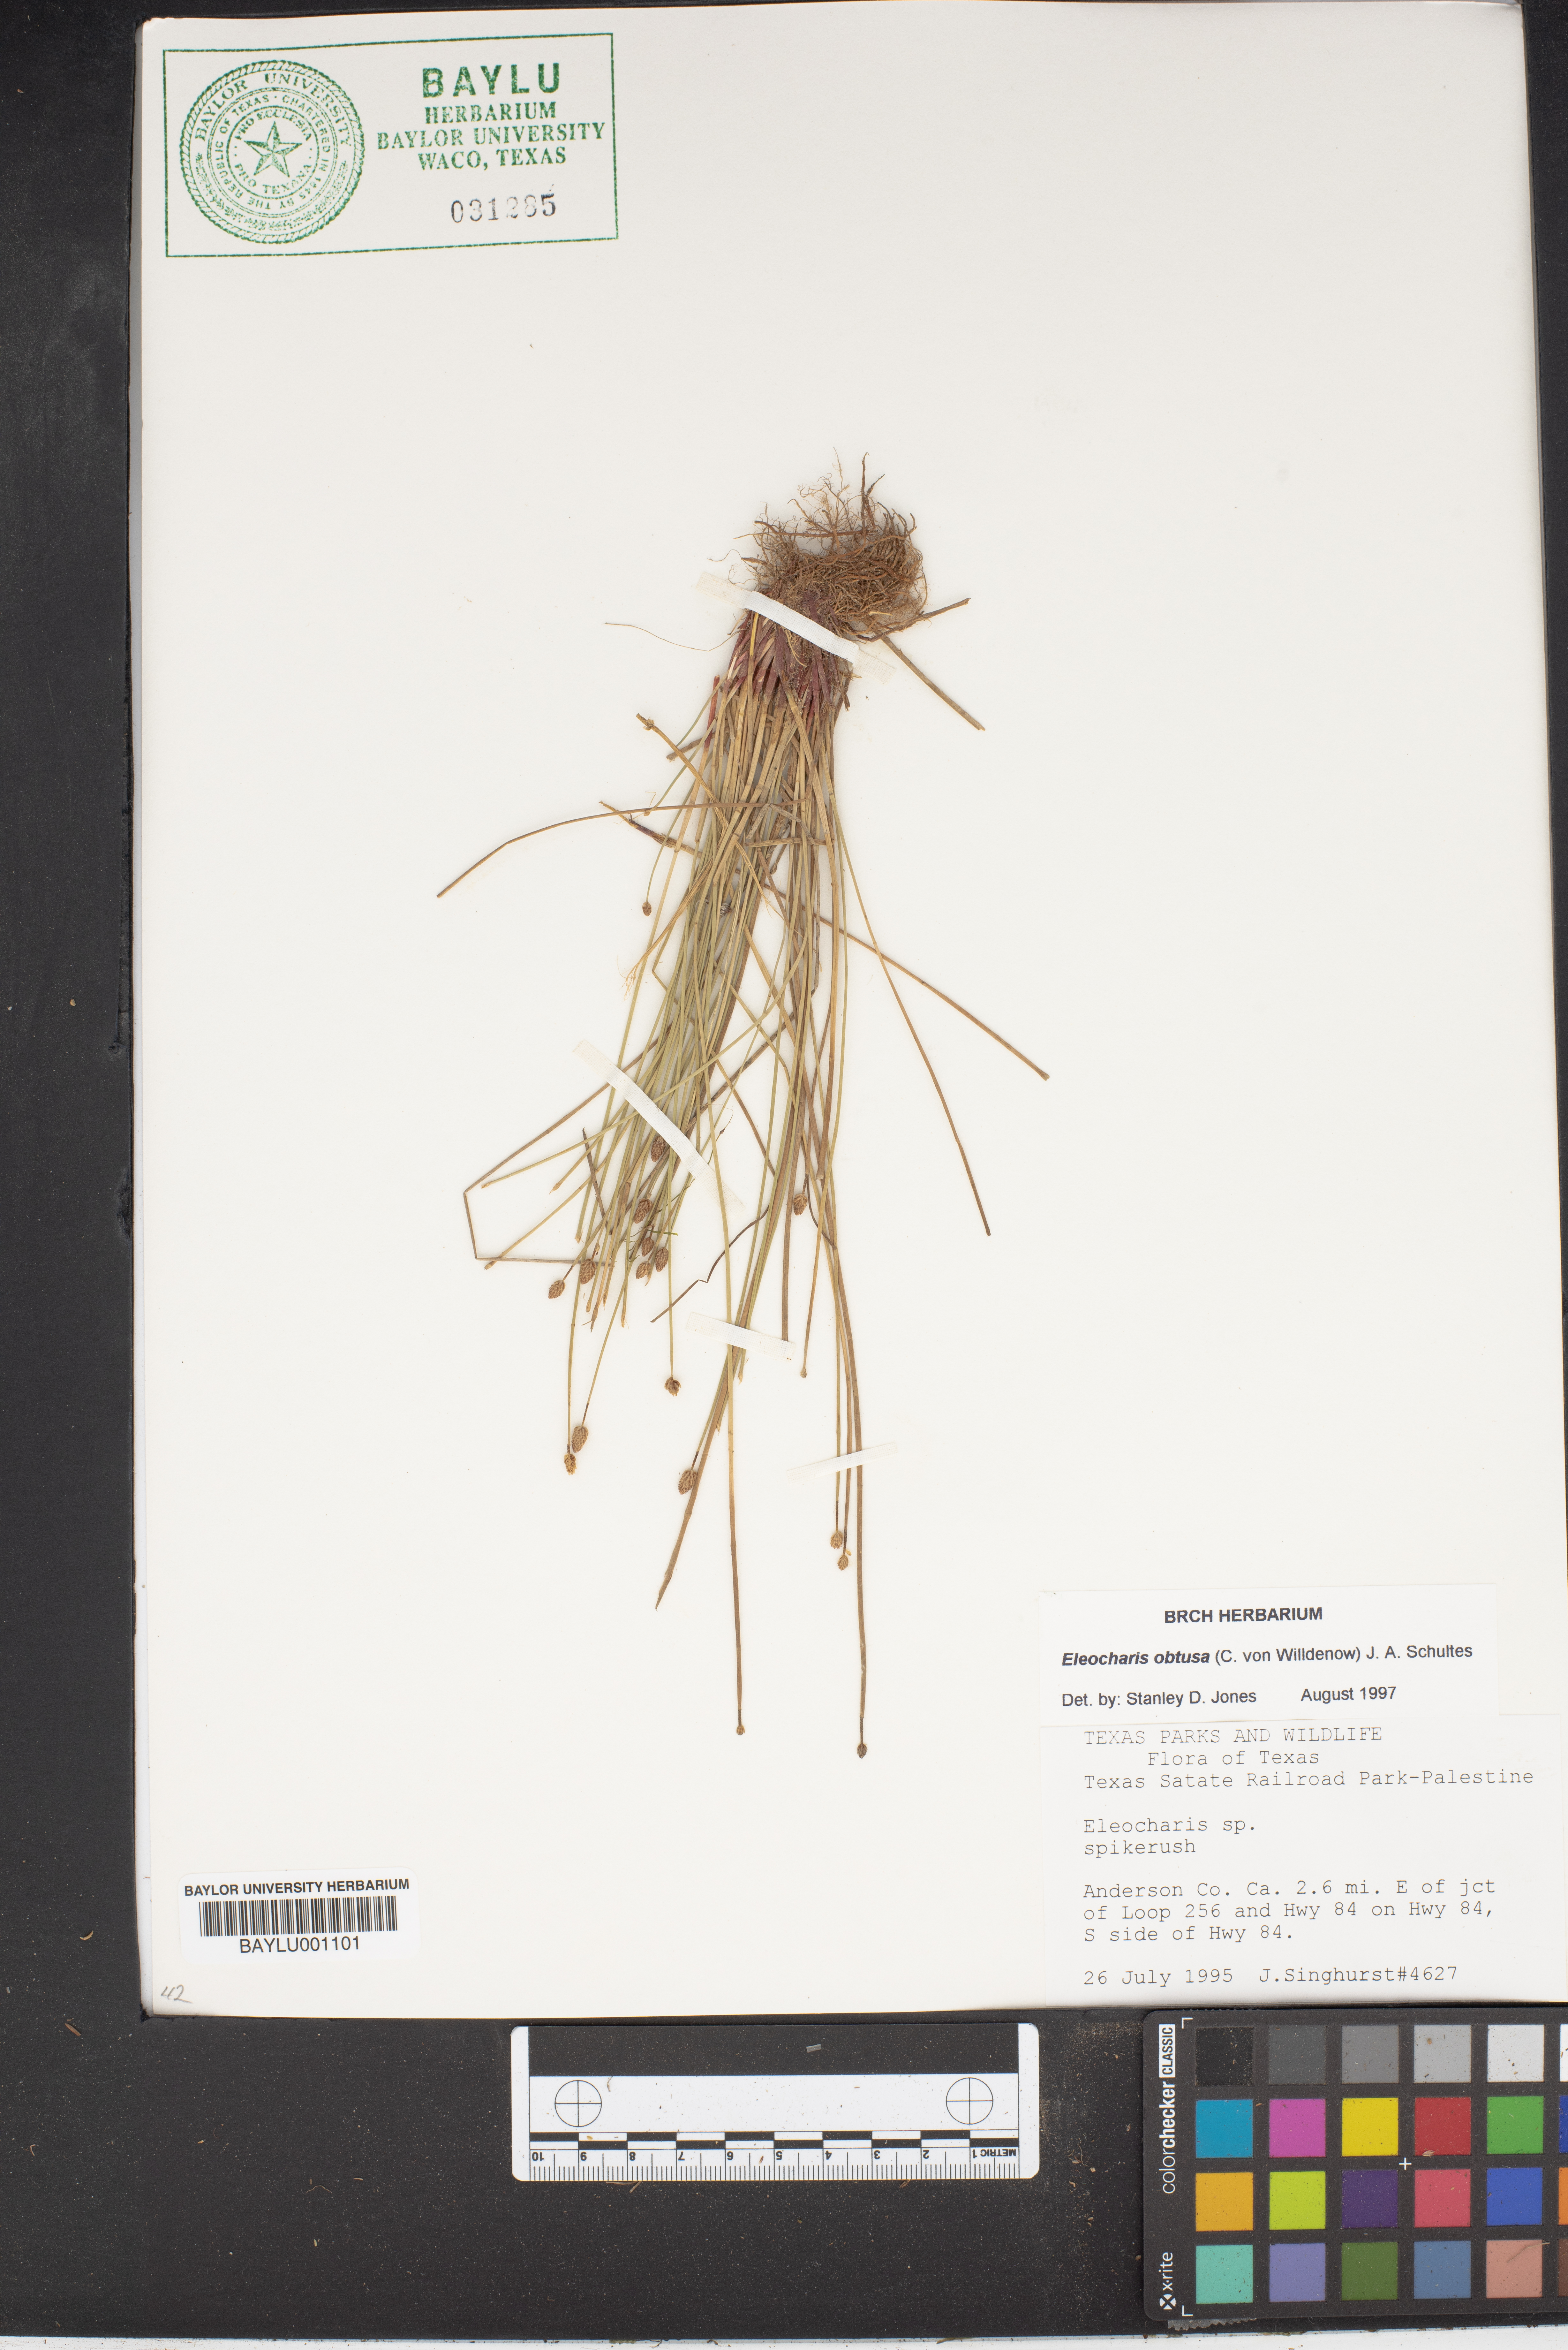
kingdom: Plantae
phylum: Tracheophyta
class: Liliopsida
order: Poales
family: Cyperaceae
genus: Eleocharis
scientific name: Eleocharis obtusa
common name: Blunt spikerush
